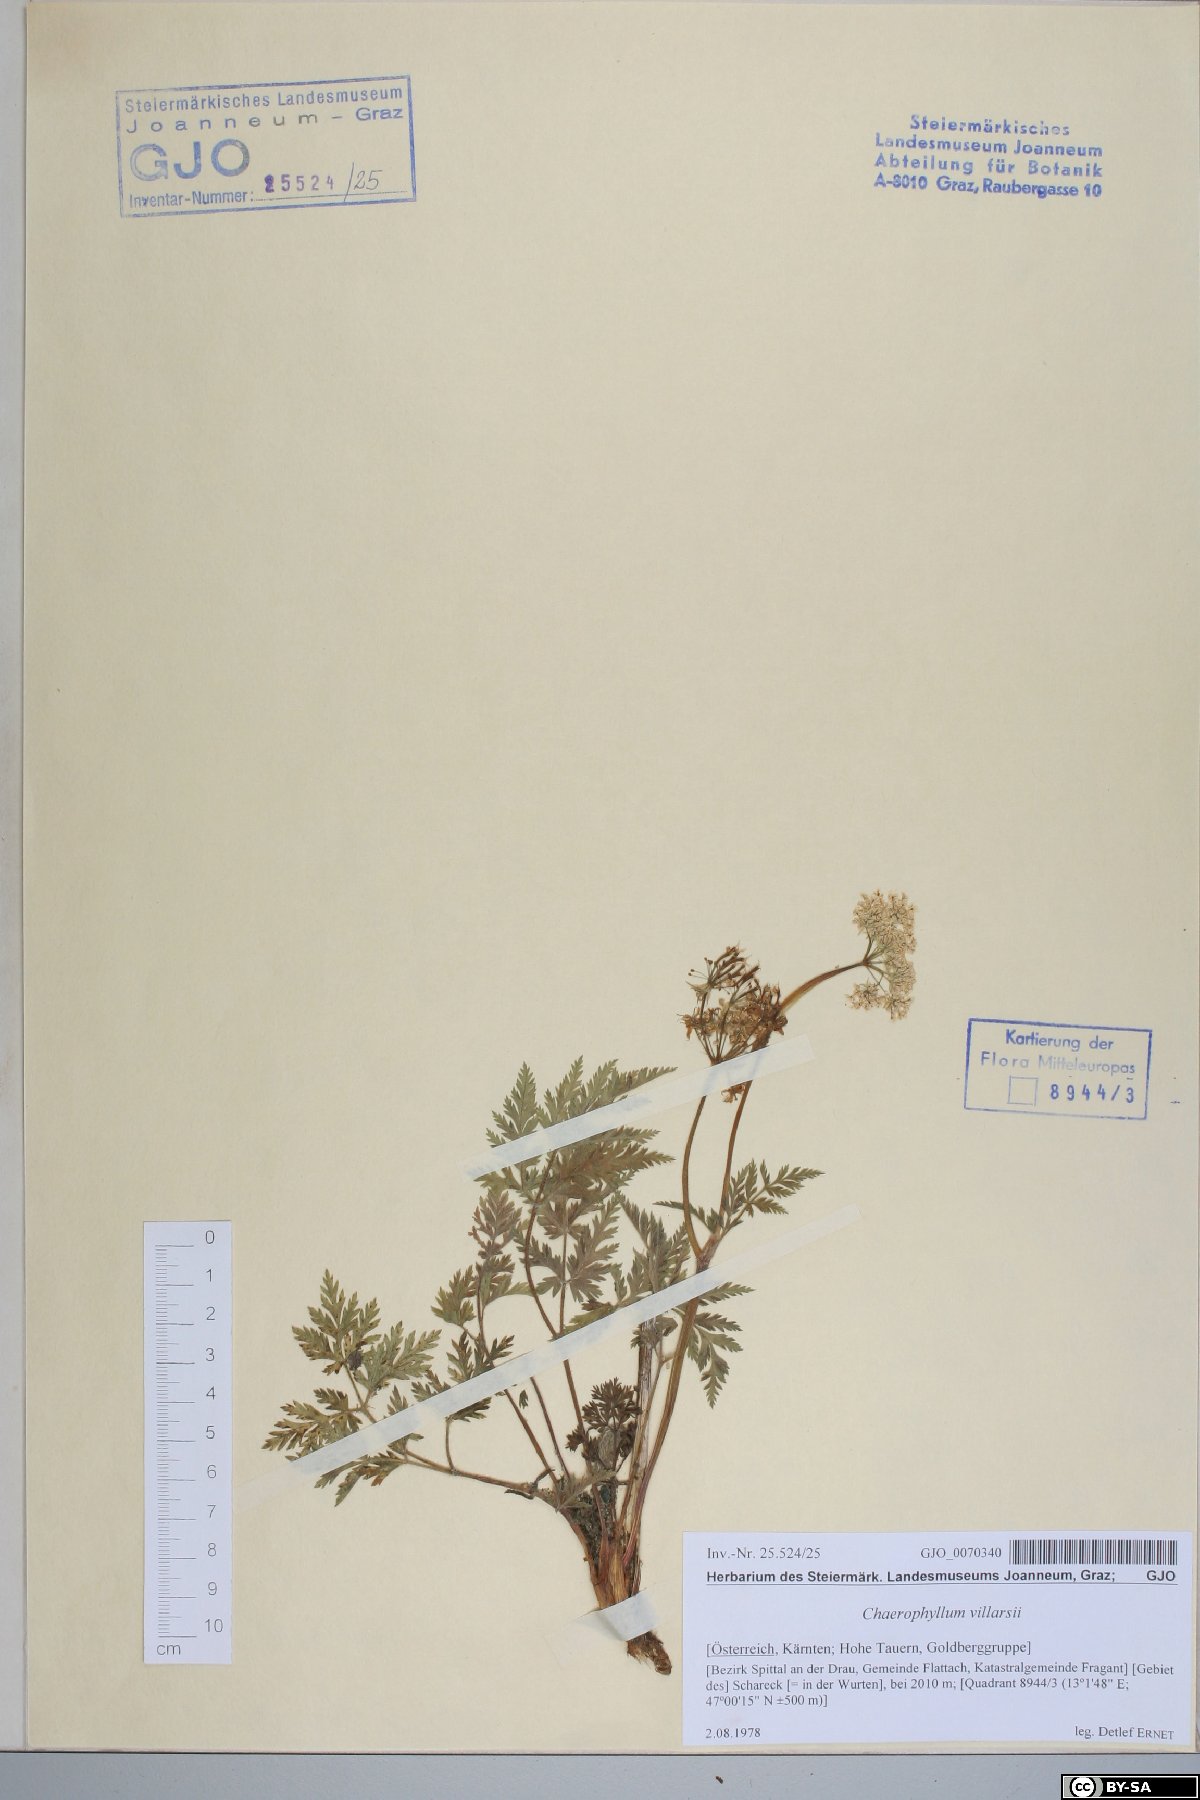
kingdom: Plantae
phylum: Tracheophyta
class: Magnoliopsida
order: Apiales
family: Apiaceae
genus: Chaerophyllum
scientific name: Chaerophyllum villarsii
